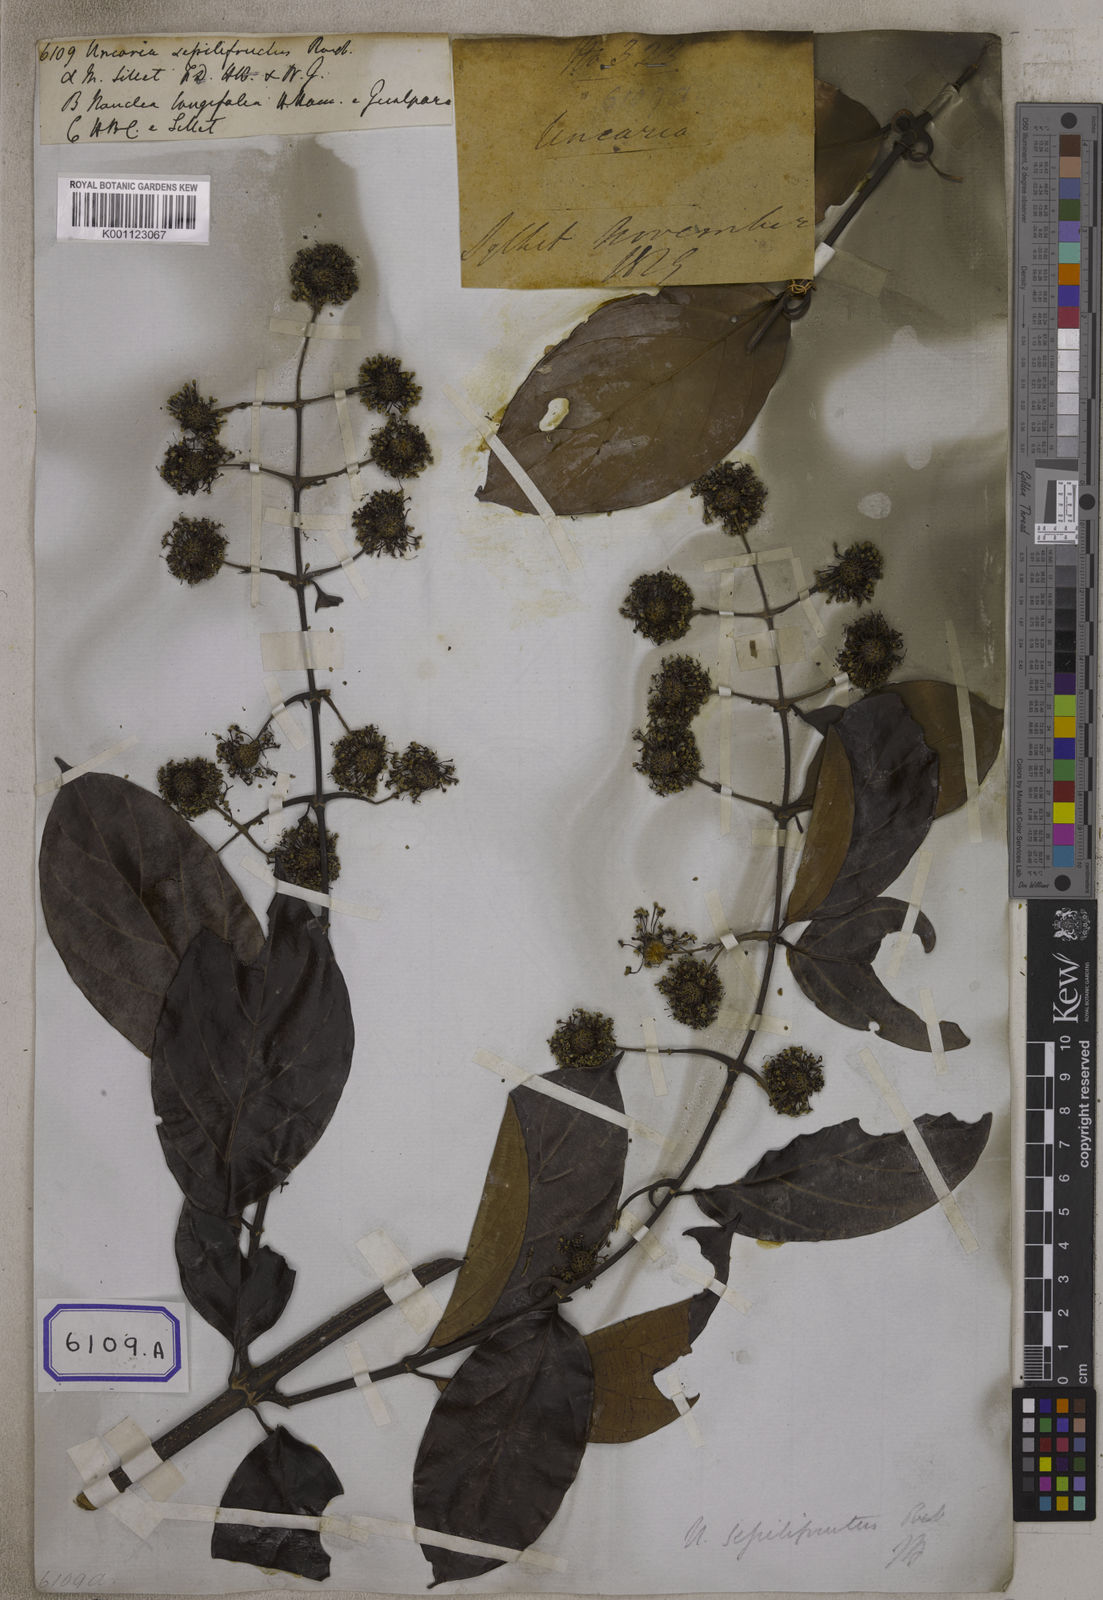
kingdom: Plantae
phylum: Tracheophyta
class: Magnoliopsida
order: Gentianales
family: Rubiaceae
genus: Uncaria
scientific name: Uncaria sessilifructus
